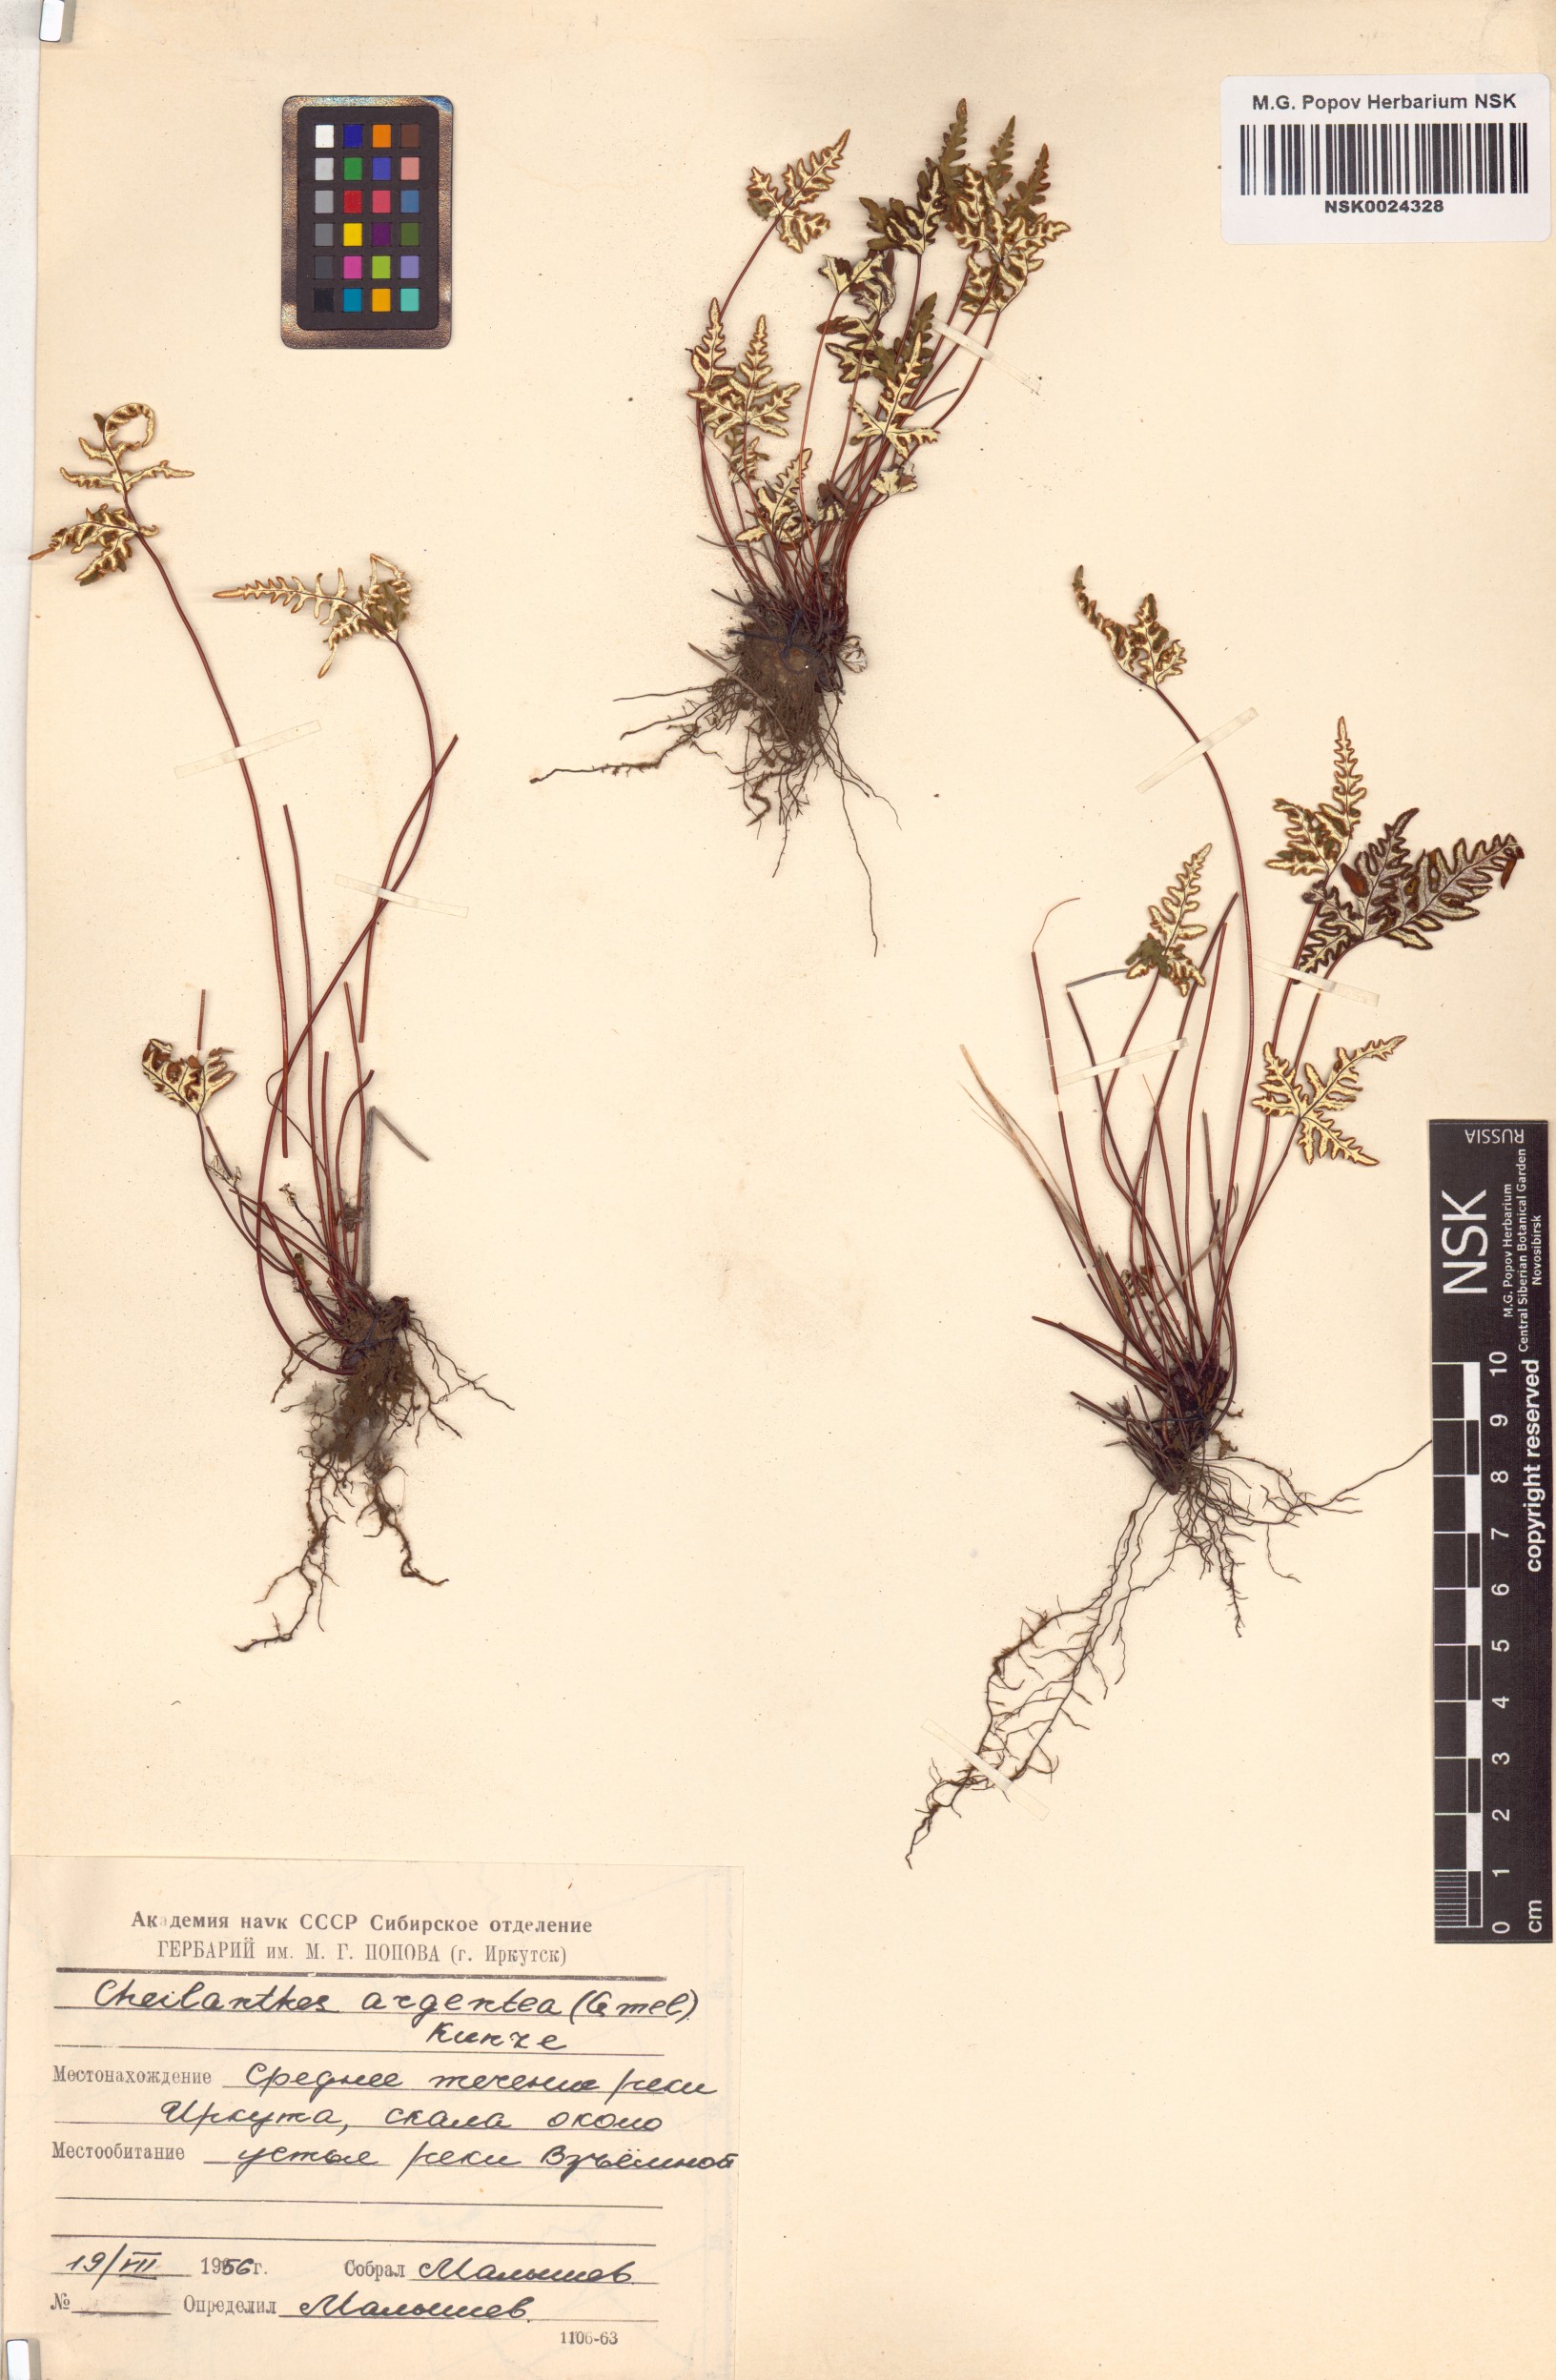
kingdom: Plantae
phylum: Tracheophyta
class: Polypodiopsida
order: Polypodiales
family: Pteridaceae
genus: Aleuritopteris
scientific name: Aleuritopteris argentea
